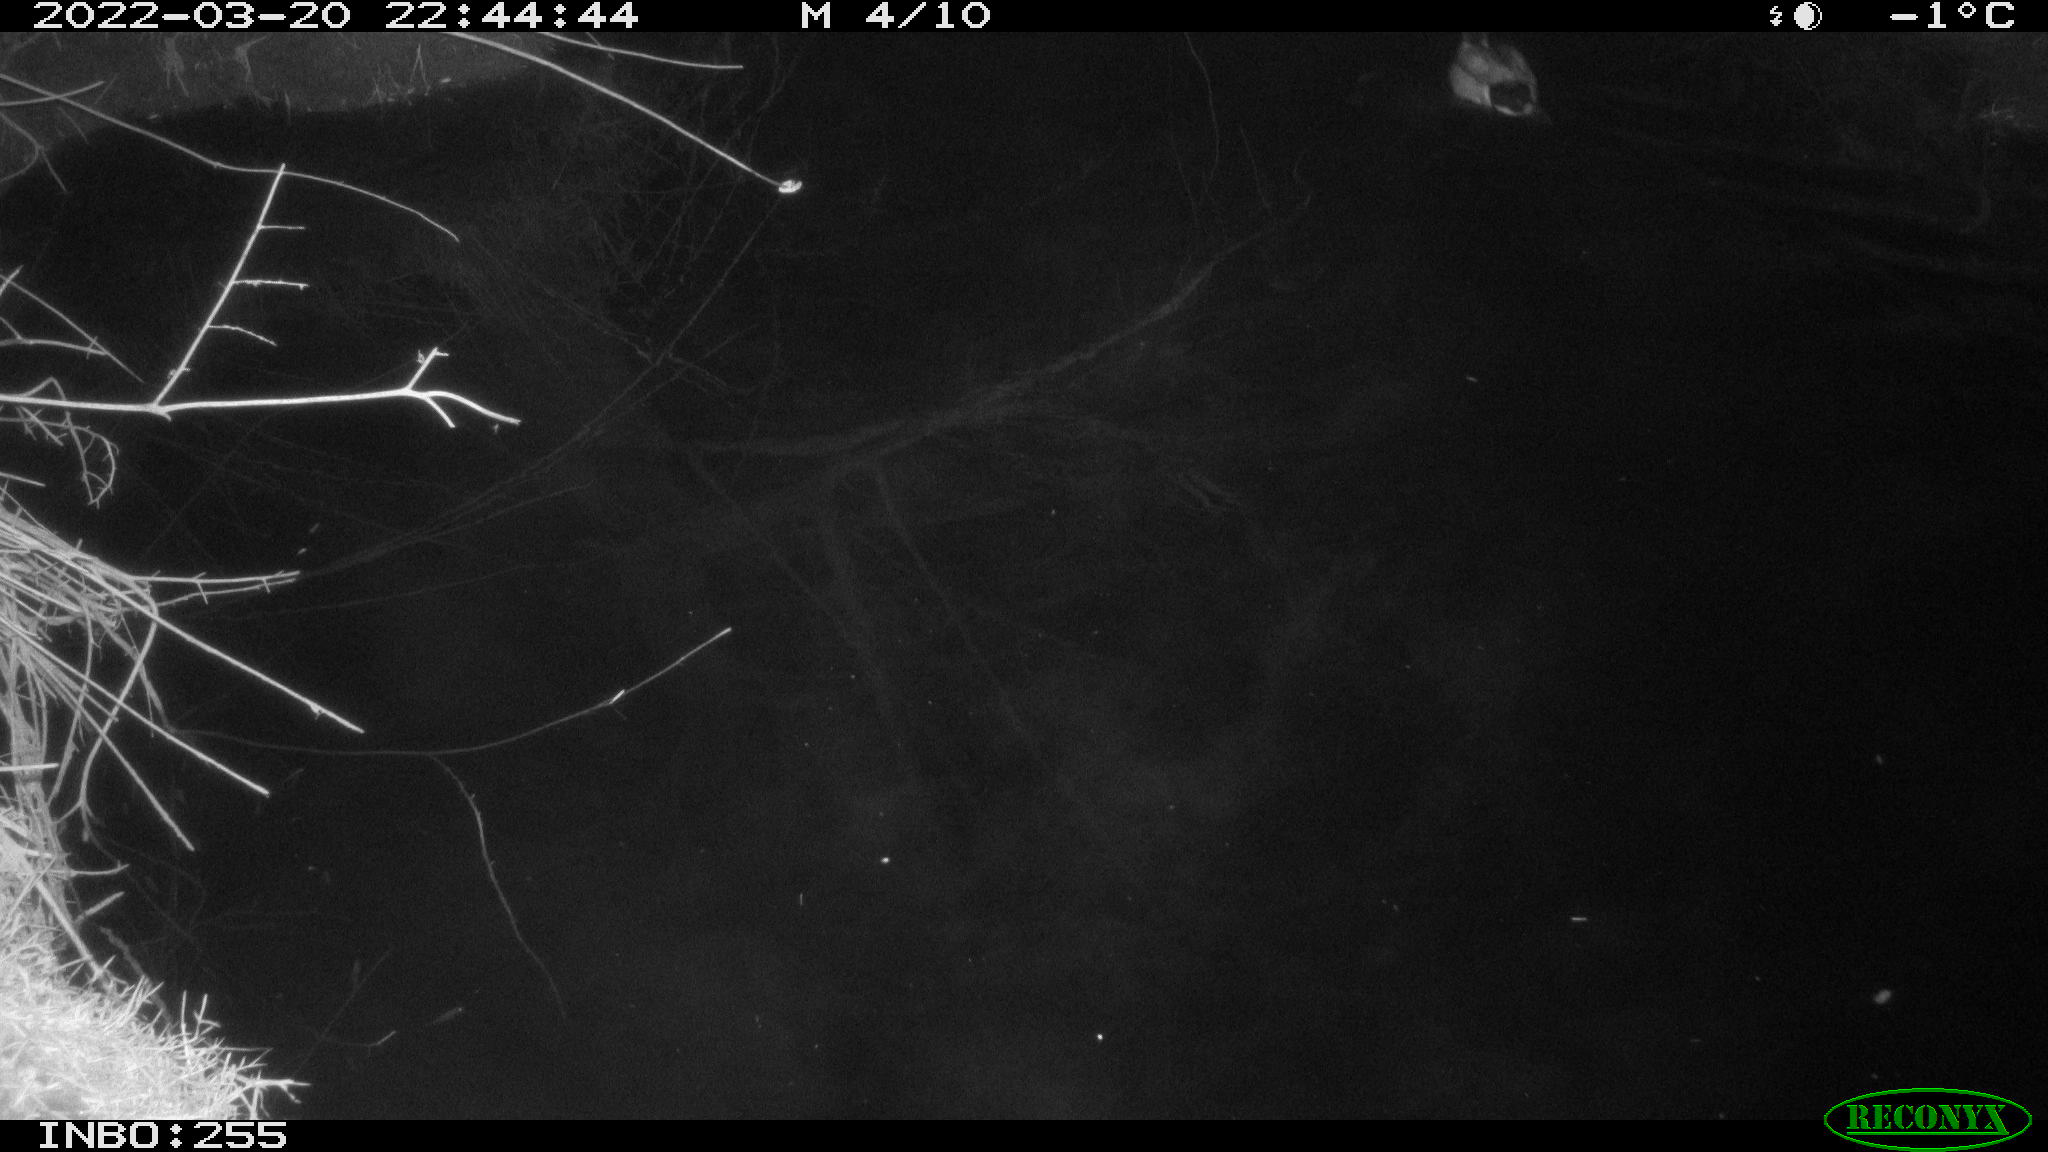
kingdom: Animalia
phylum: Chordata
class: Aves
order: Anseriformes
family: Anatidae
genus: Anas
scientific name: Anas platyrhynchos
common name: Mallard
